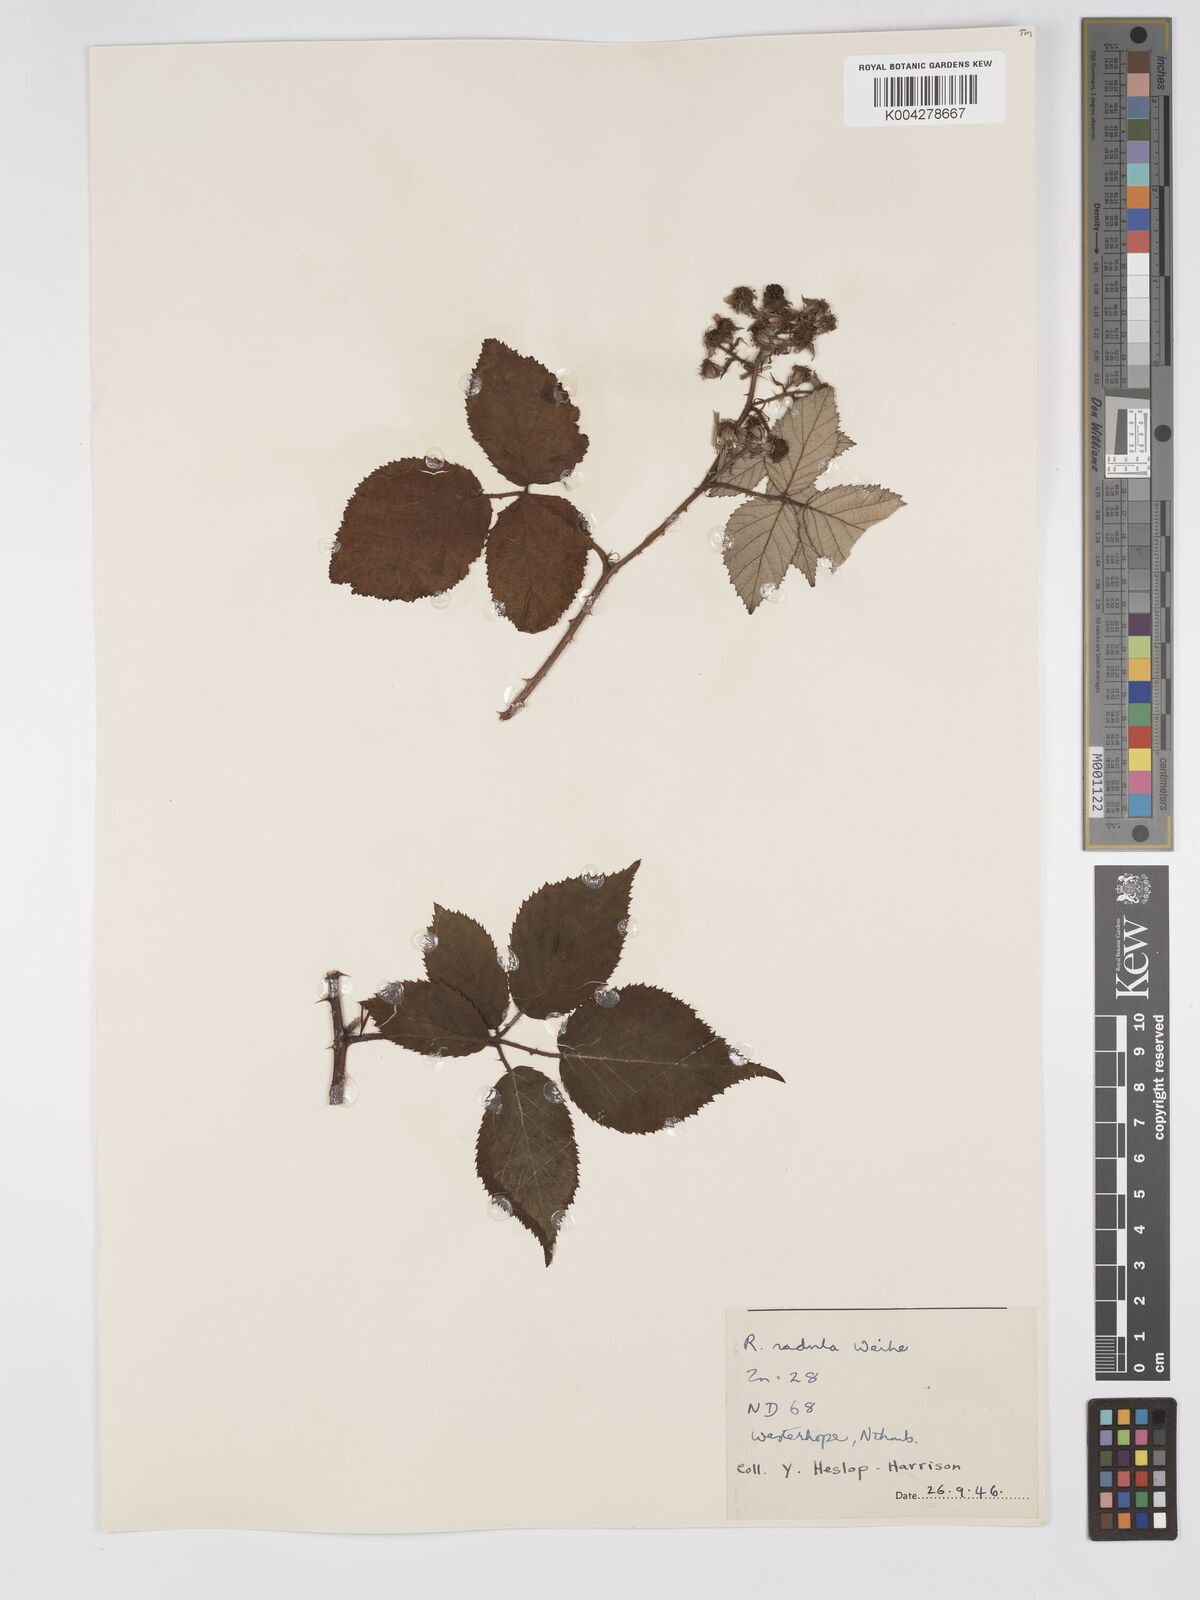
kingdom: Plantae
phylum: Tracheophyta
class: Magnoliopsida
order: Rosales
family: Rosaceae
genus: Rubus
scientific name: Rubus radula
